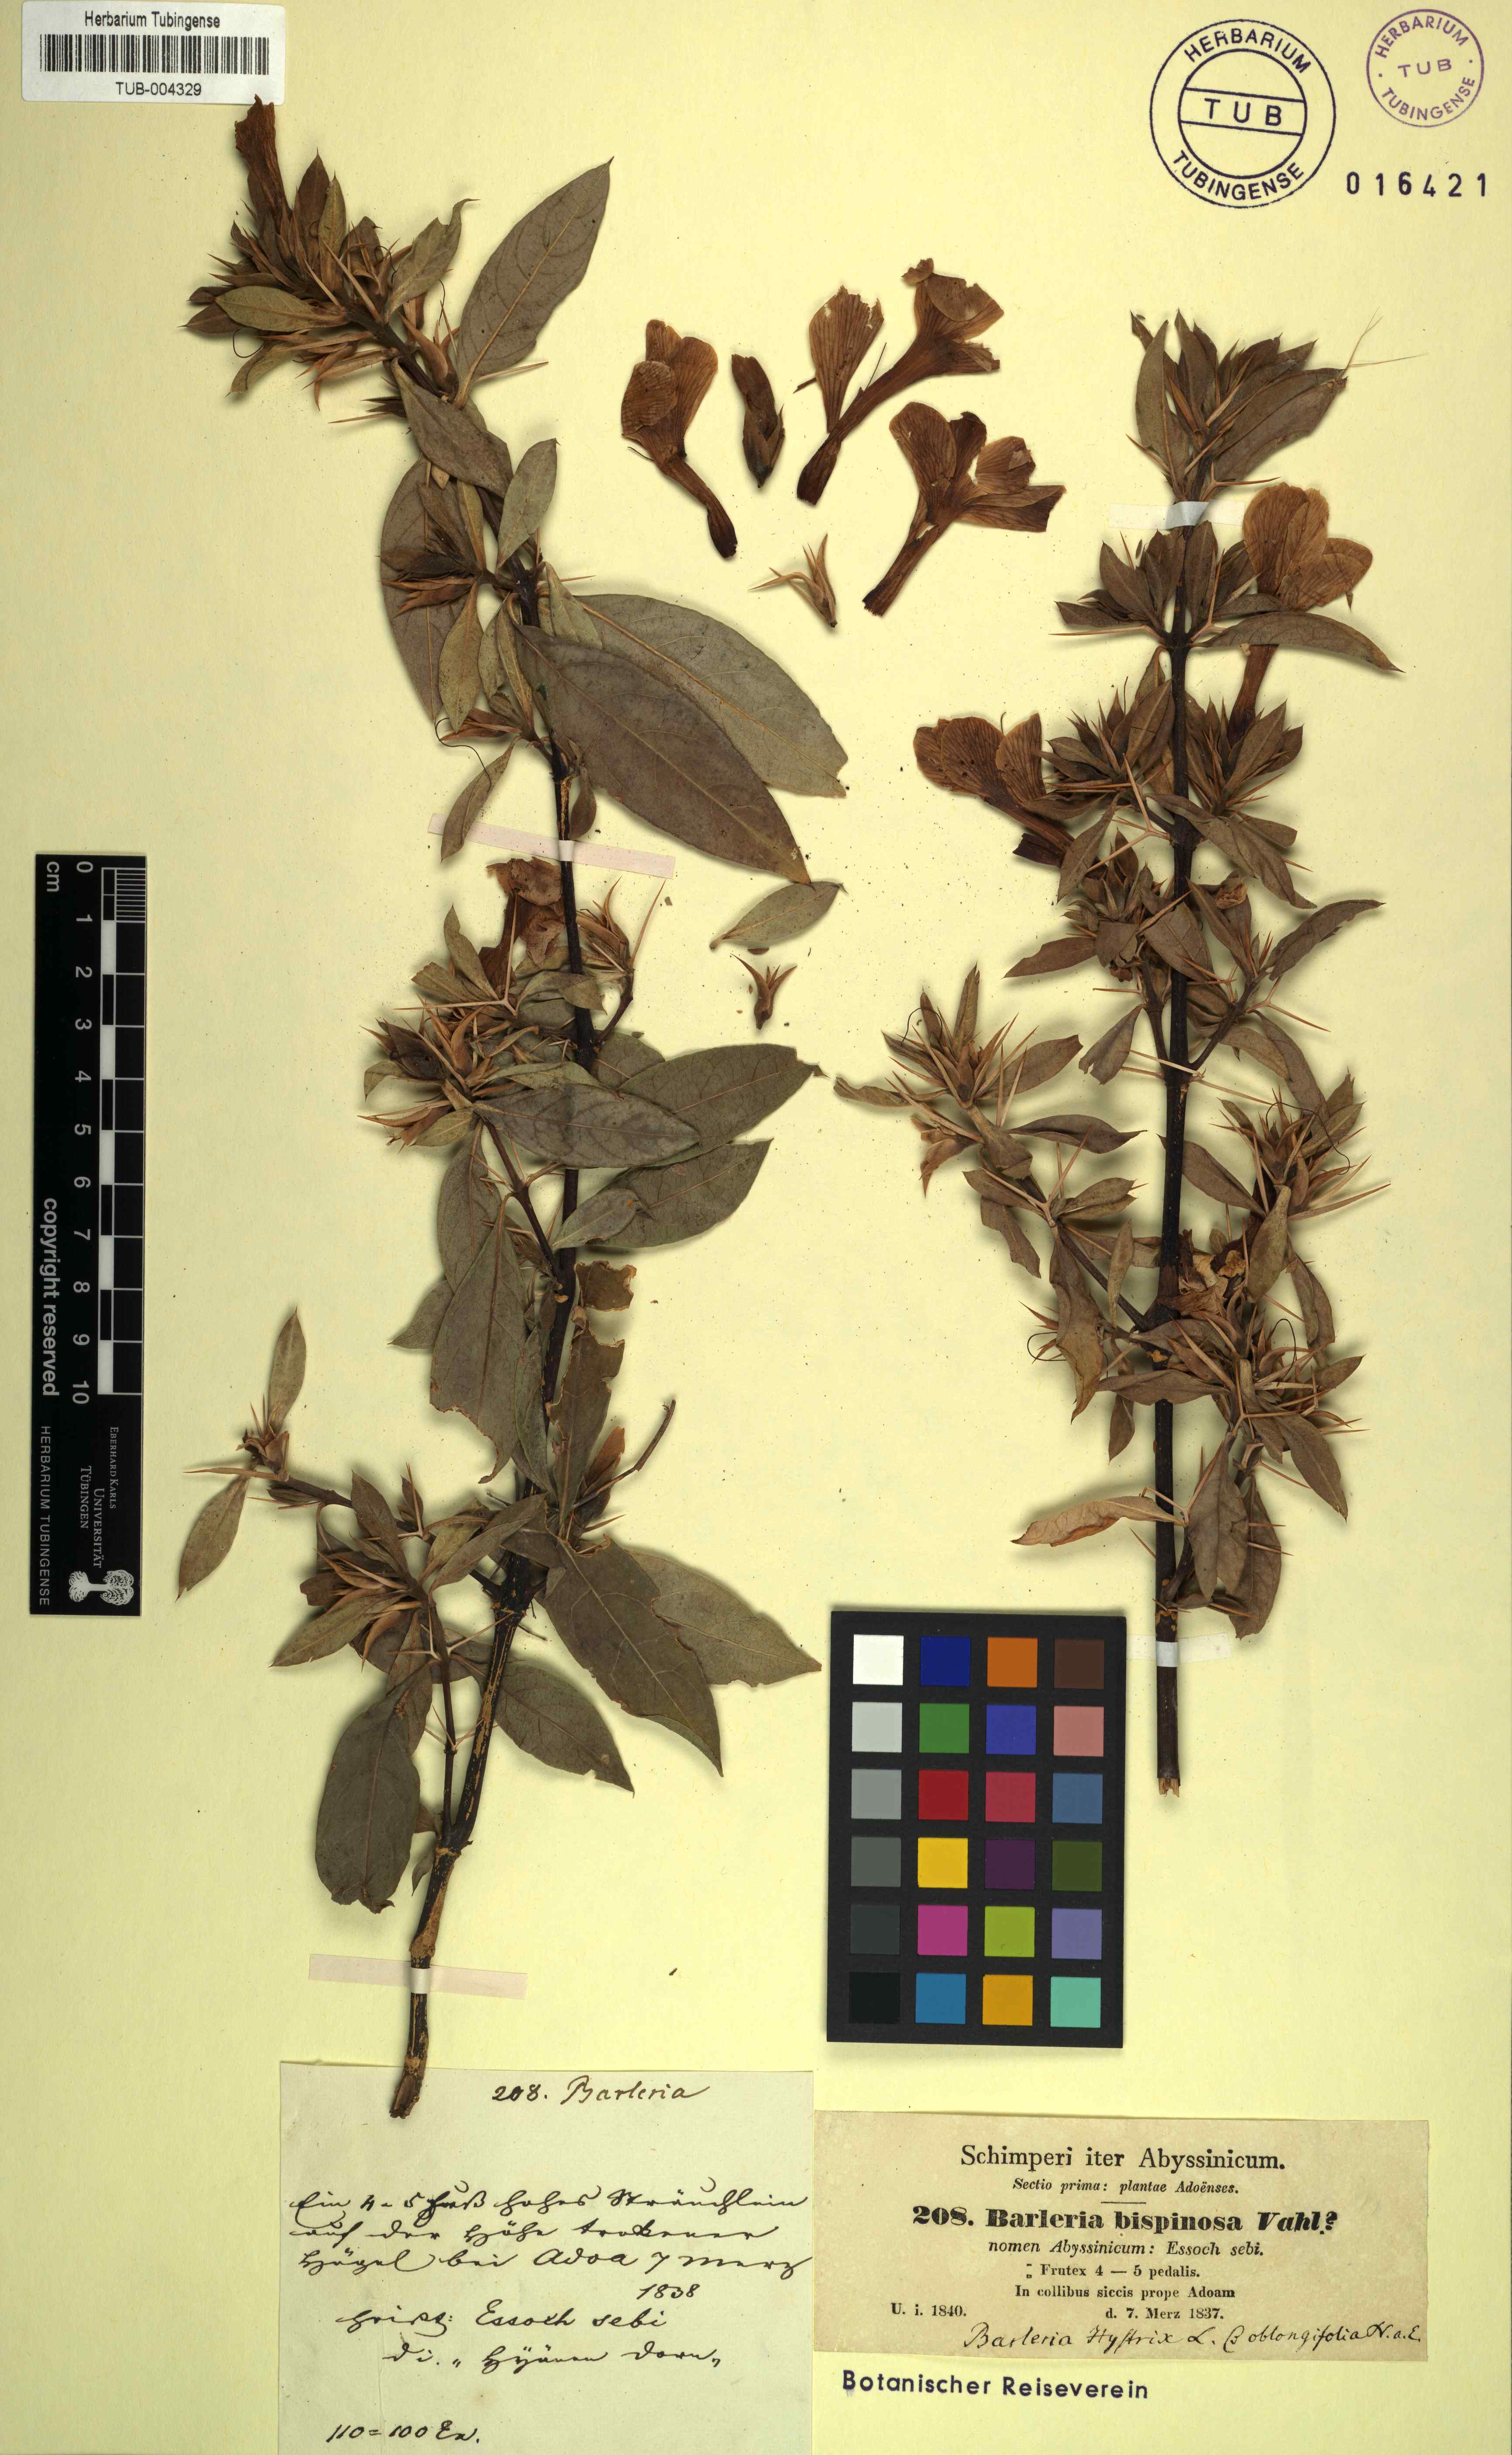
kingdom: Plantae
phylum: Tracheophyta
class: Magnoliopsida
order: Lamiales
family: Acanthaceae
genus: Barleria
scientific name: Barleria prionitis
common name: Barleria
